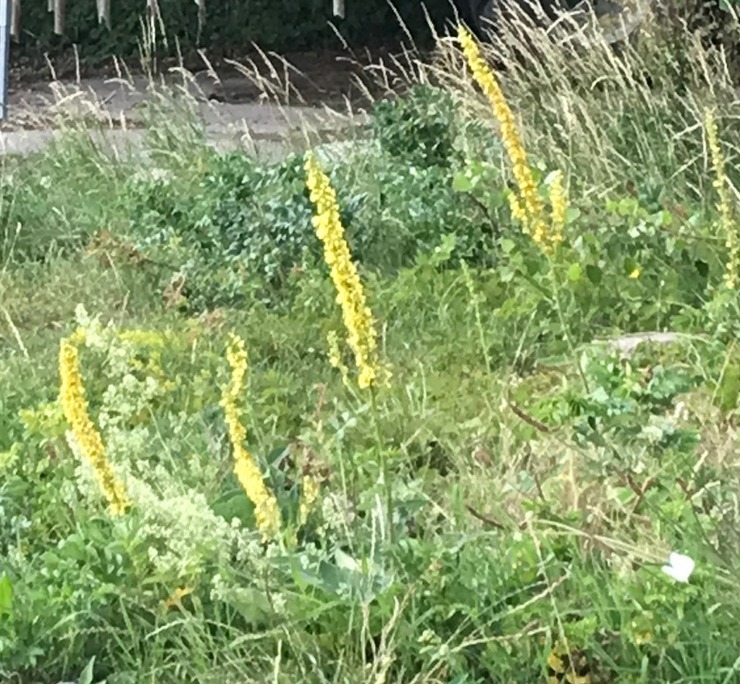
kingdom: Plantae
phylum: Tracheophyta
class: Magnoliopsida
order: Lamiales
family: Scrophulariaceae
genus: Verbascum
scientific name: Verbascum nigrum
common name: Mørk kongelys
